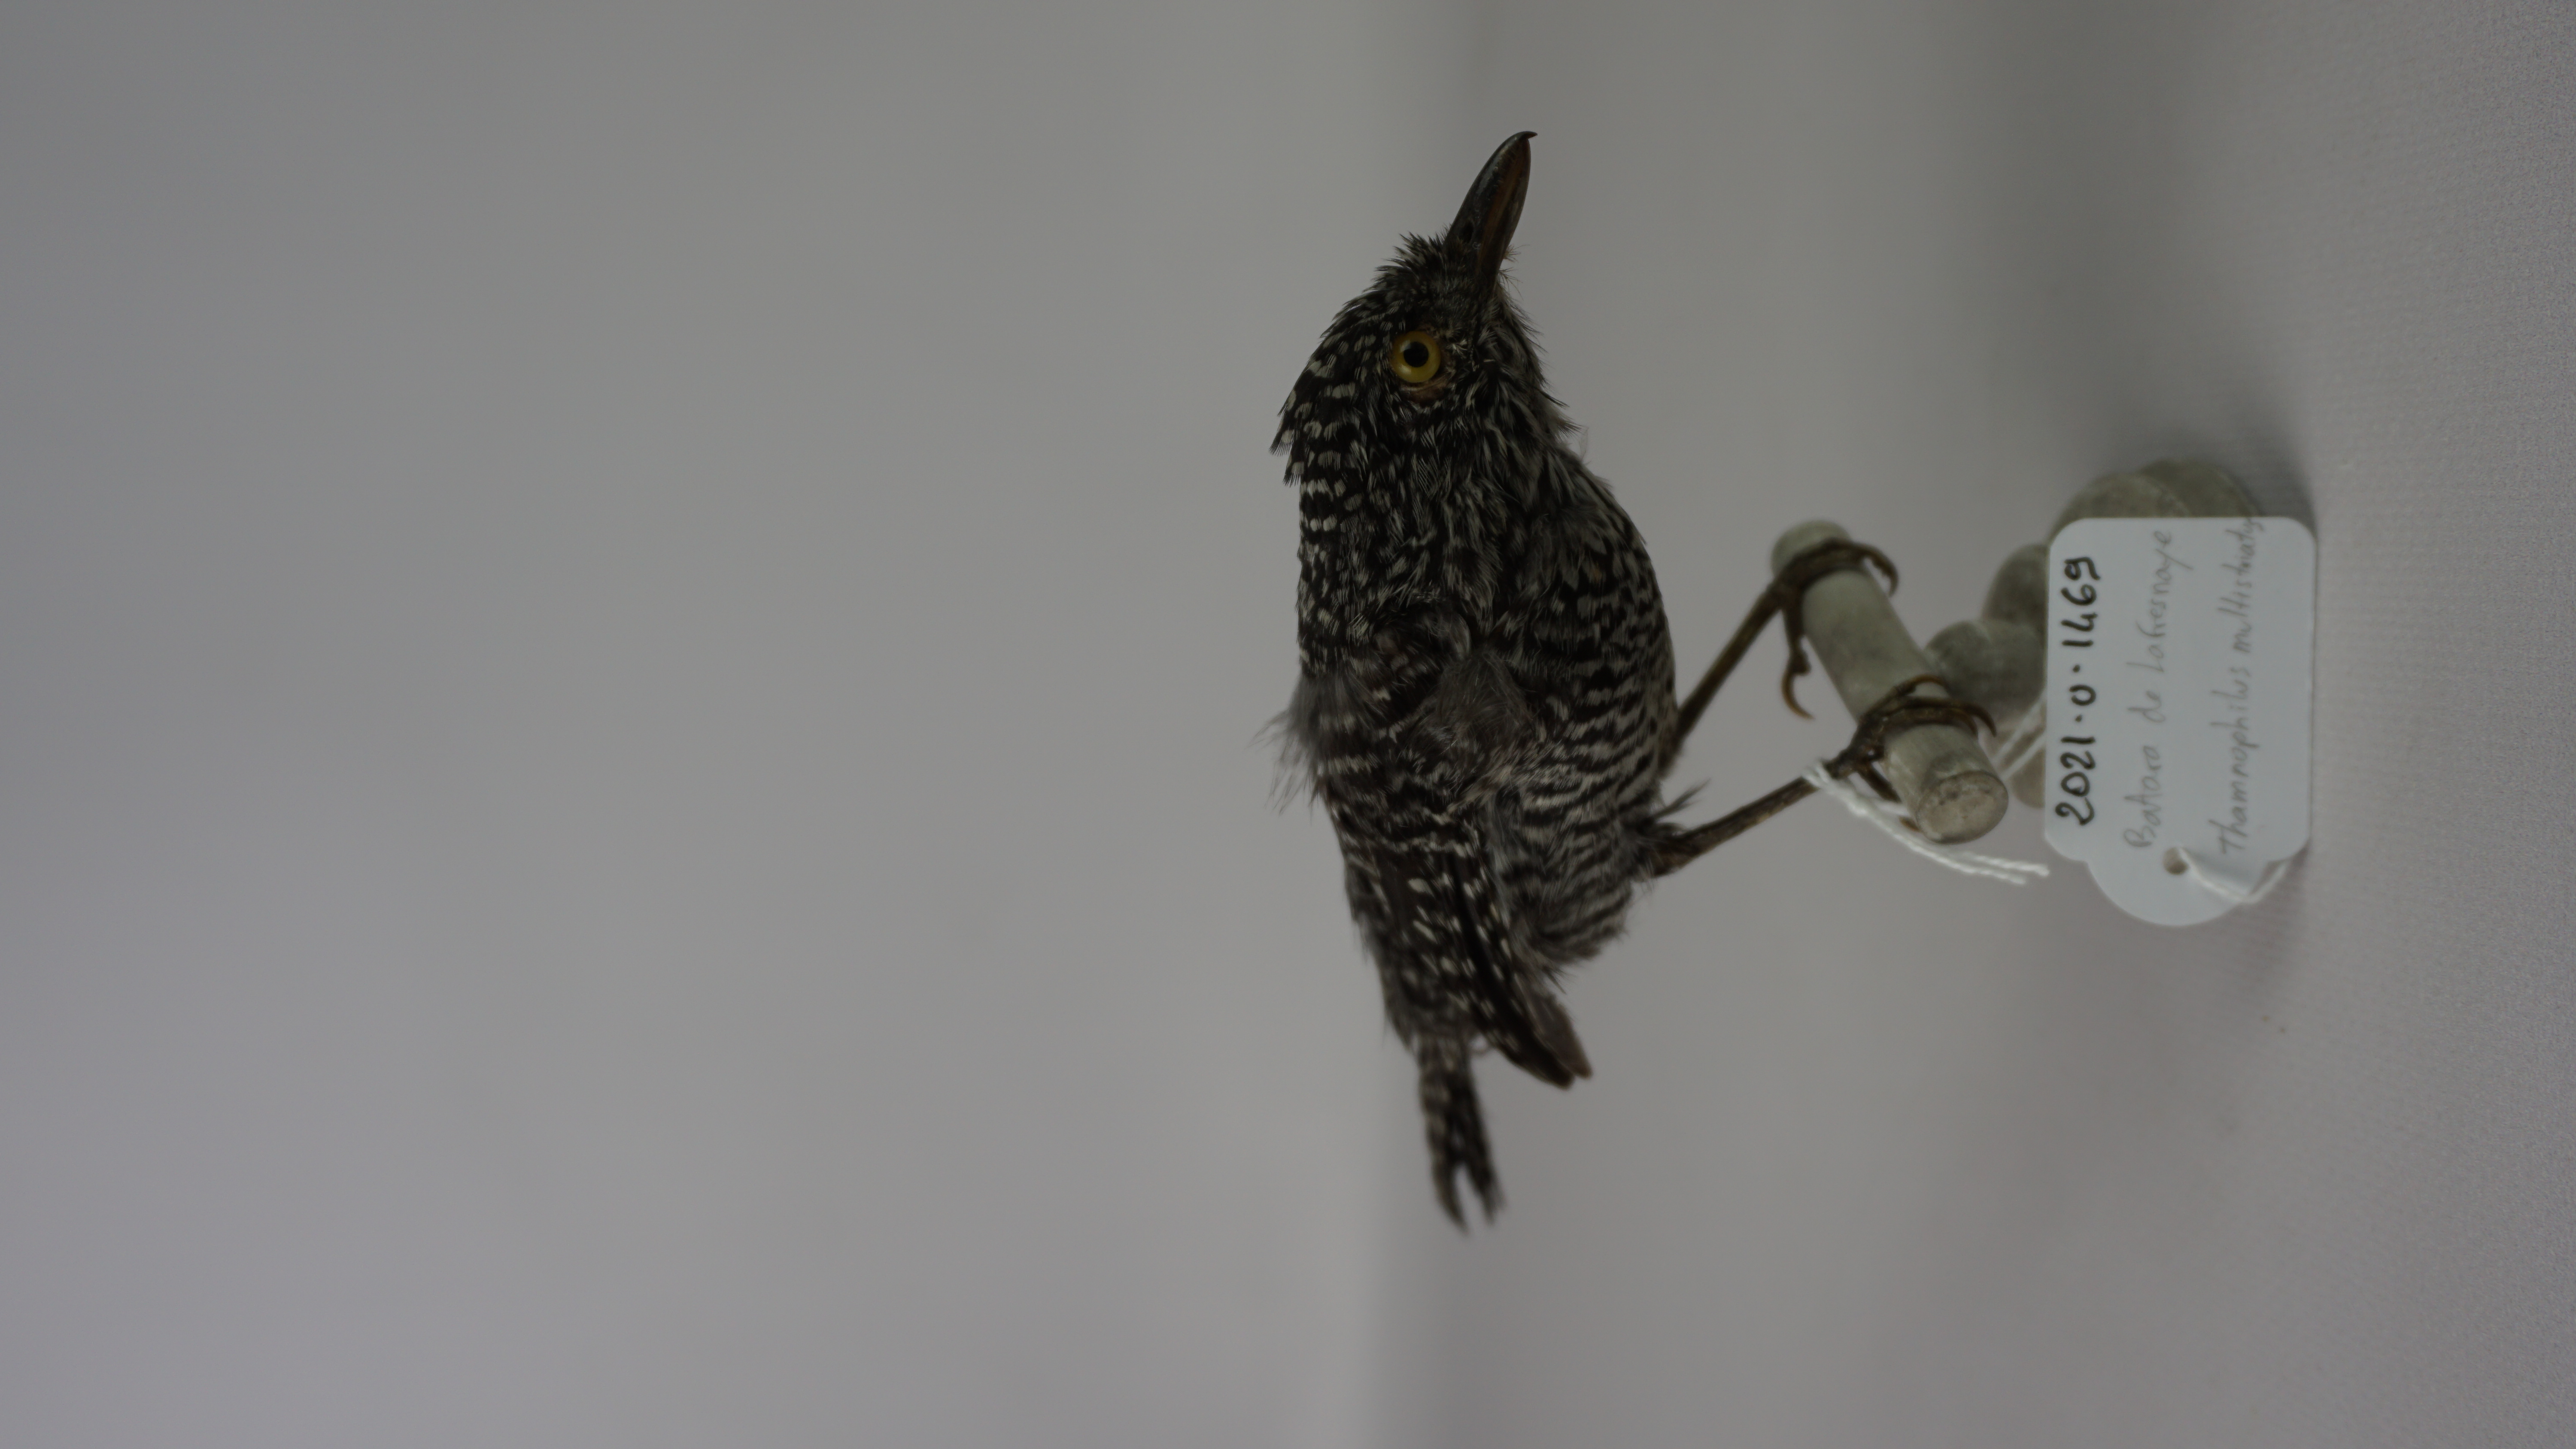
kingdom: Animalia
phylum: Chordata
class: Aves
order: Passeriformes
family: Thamnophilidae
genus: Thamnophilus
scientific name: Thamnophilus multistriatus
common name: Bar-crested antshrike
